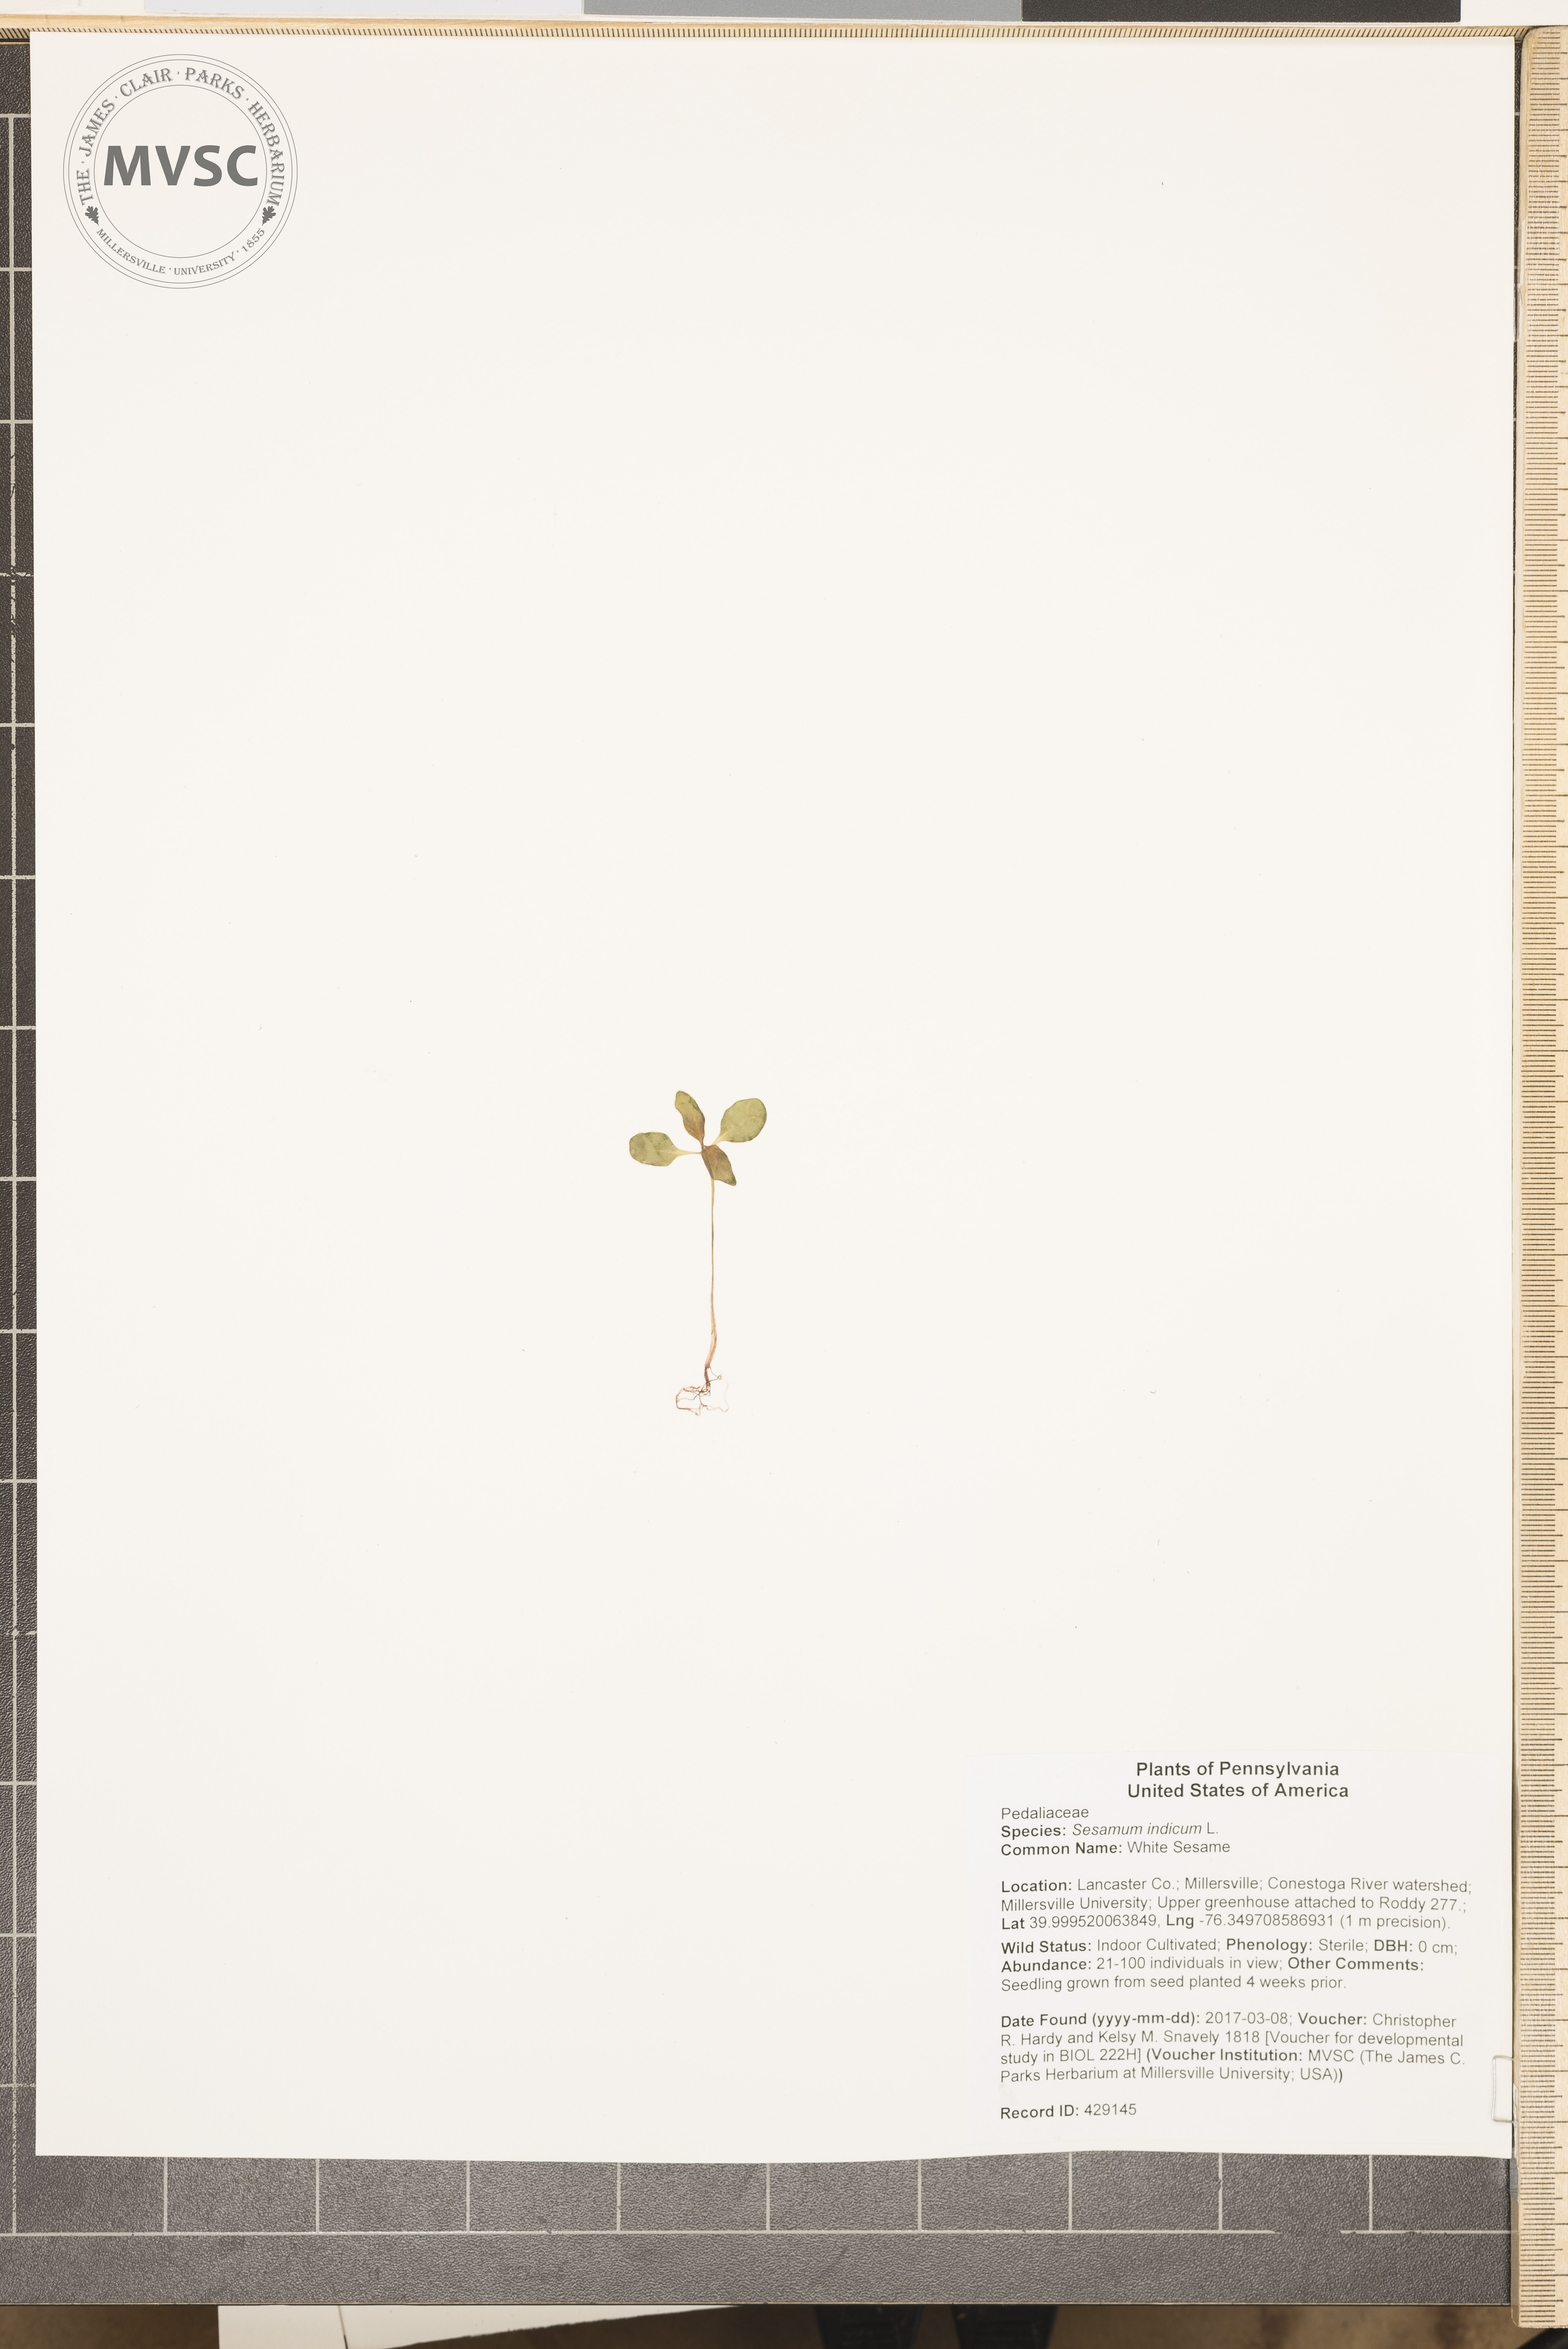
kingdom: Plantae
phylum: Tracheophyta
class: Magnoliopsida
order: Lamiales
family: Pedaliaceae
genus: Sesamum
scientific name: Sesamum indicum
